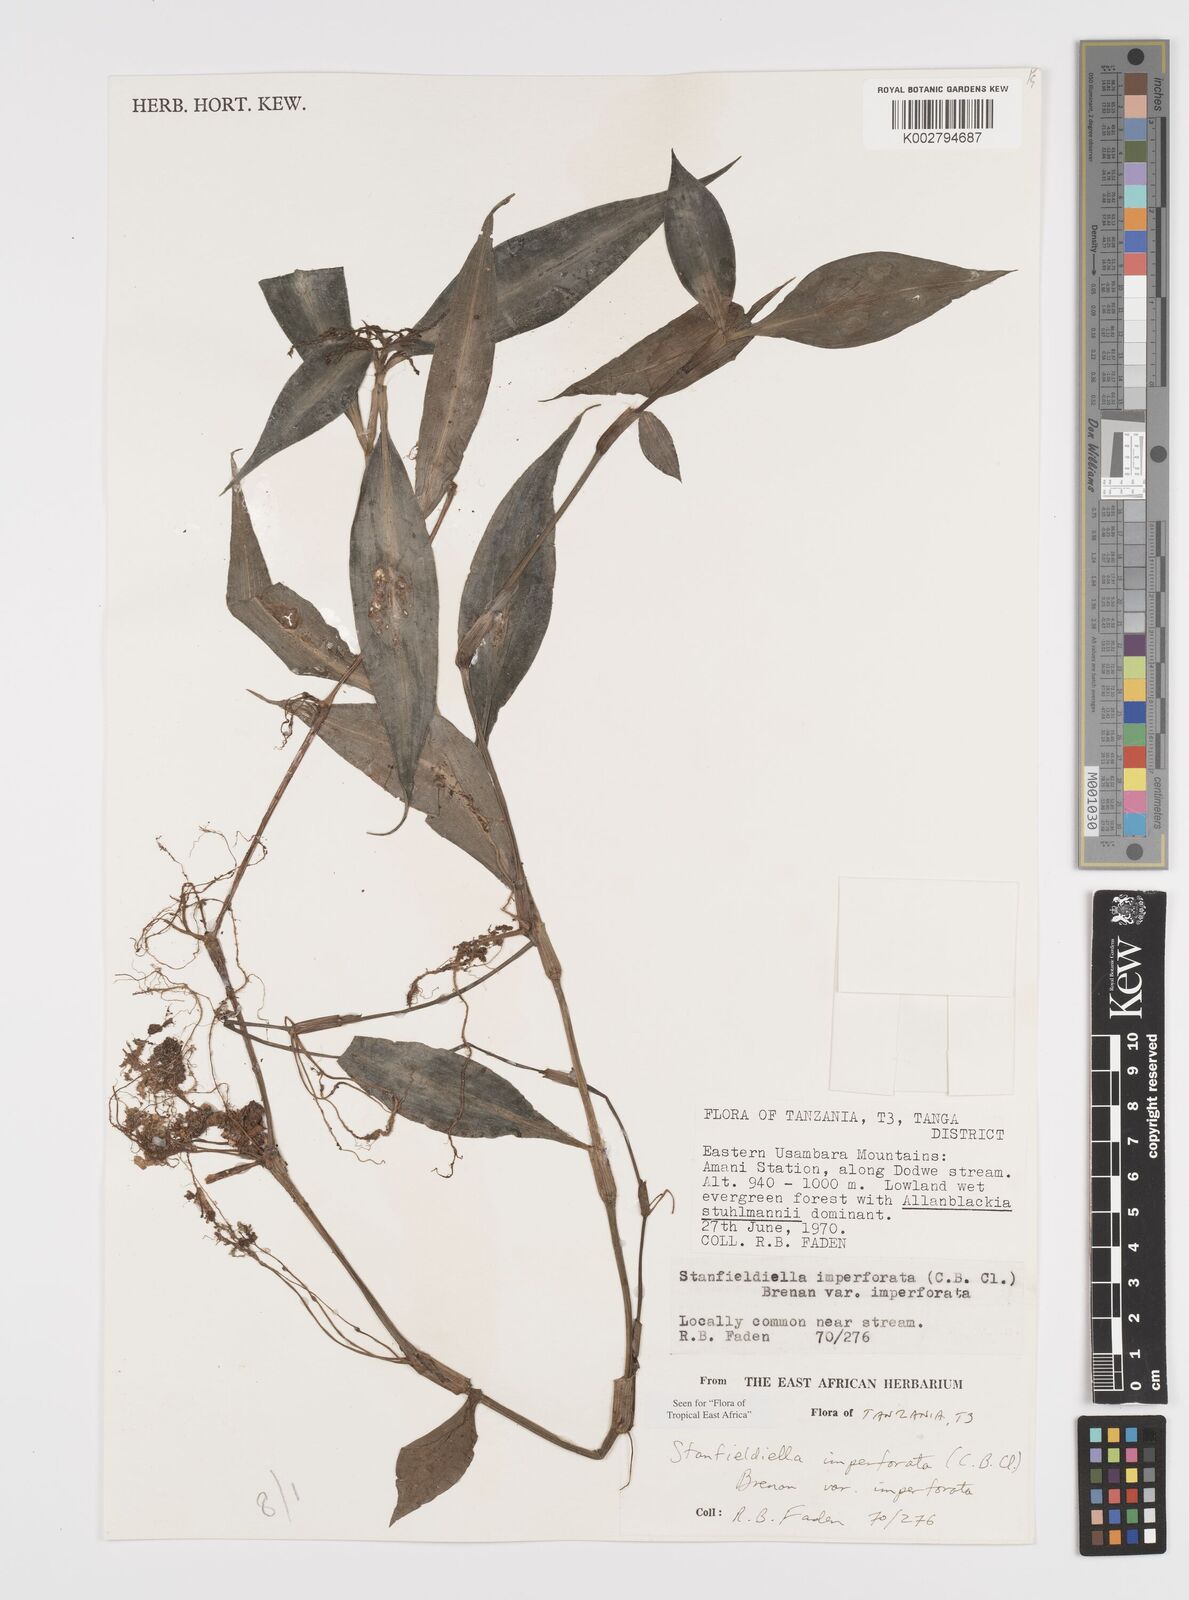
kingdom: Plantae
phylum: Tracheophyta
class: Liliopsida
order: Commelinales
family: Commelinaceae
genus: Stanfieldiella
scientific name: Stanfieldiella imperforata
